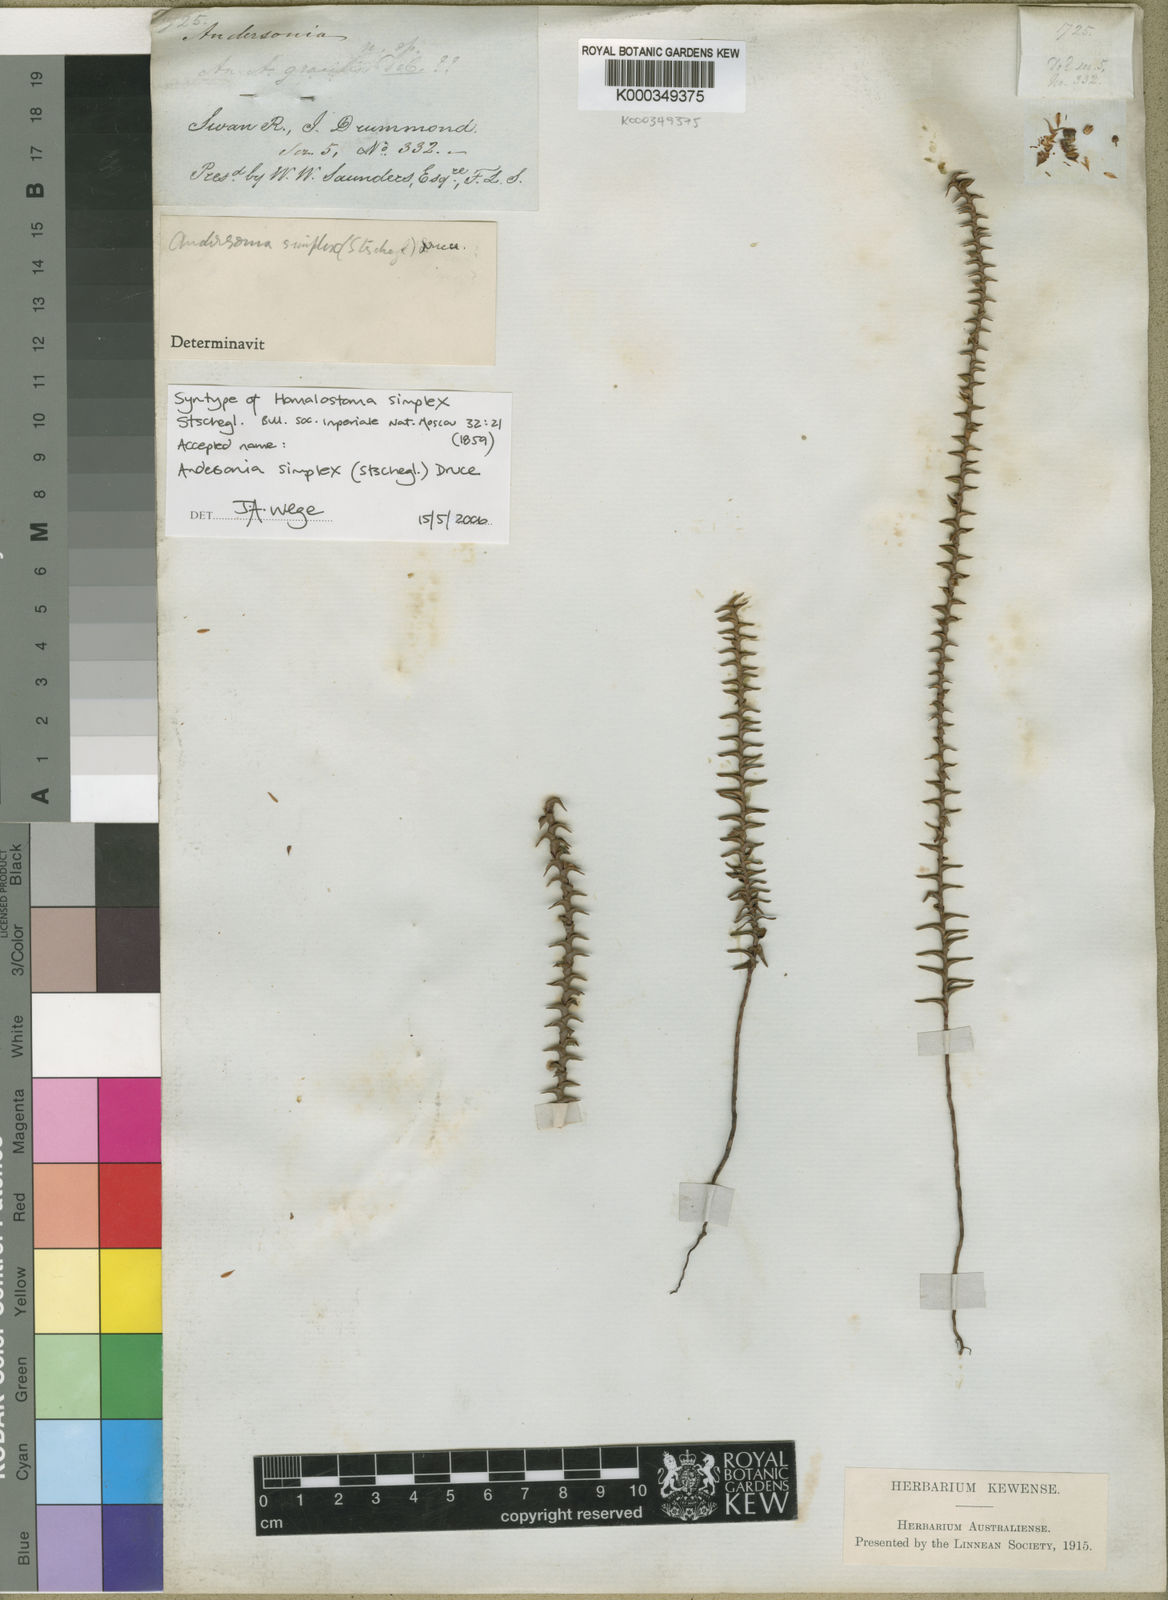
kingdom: Plantae
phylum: Tracheophyta
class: Magnoliopsida
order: Ericales
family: Ericaceae
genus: Andersonia
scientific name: Andersonia simplex
